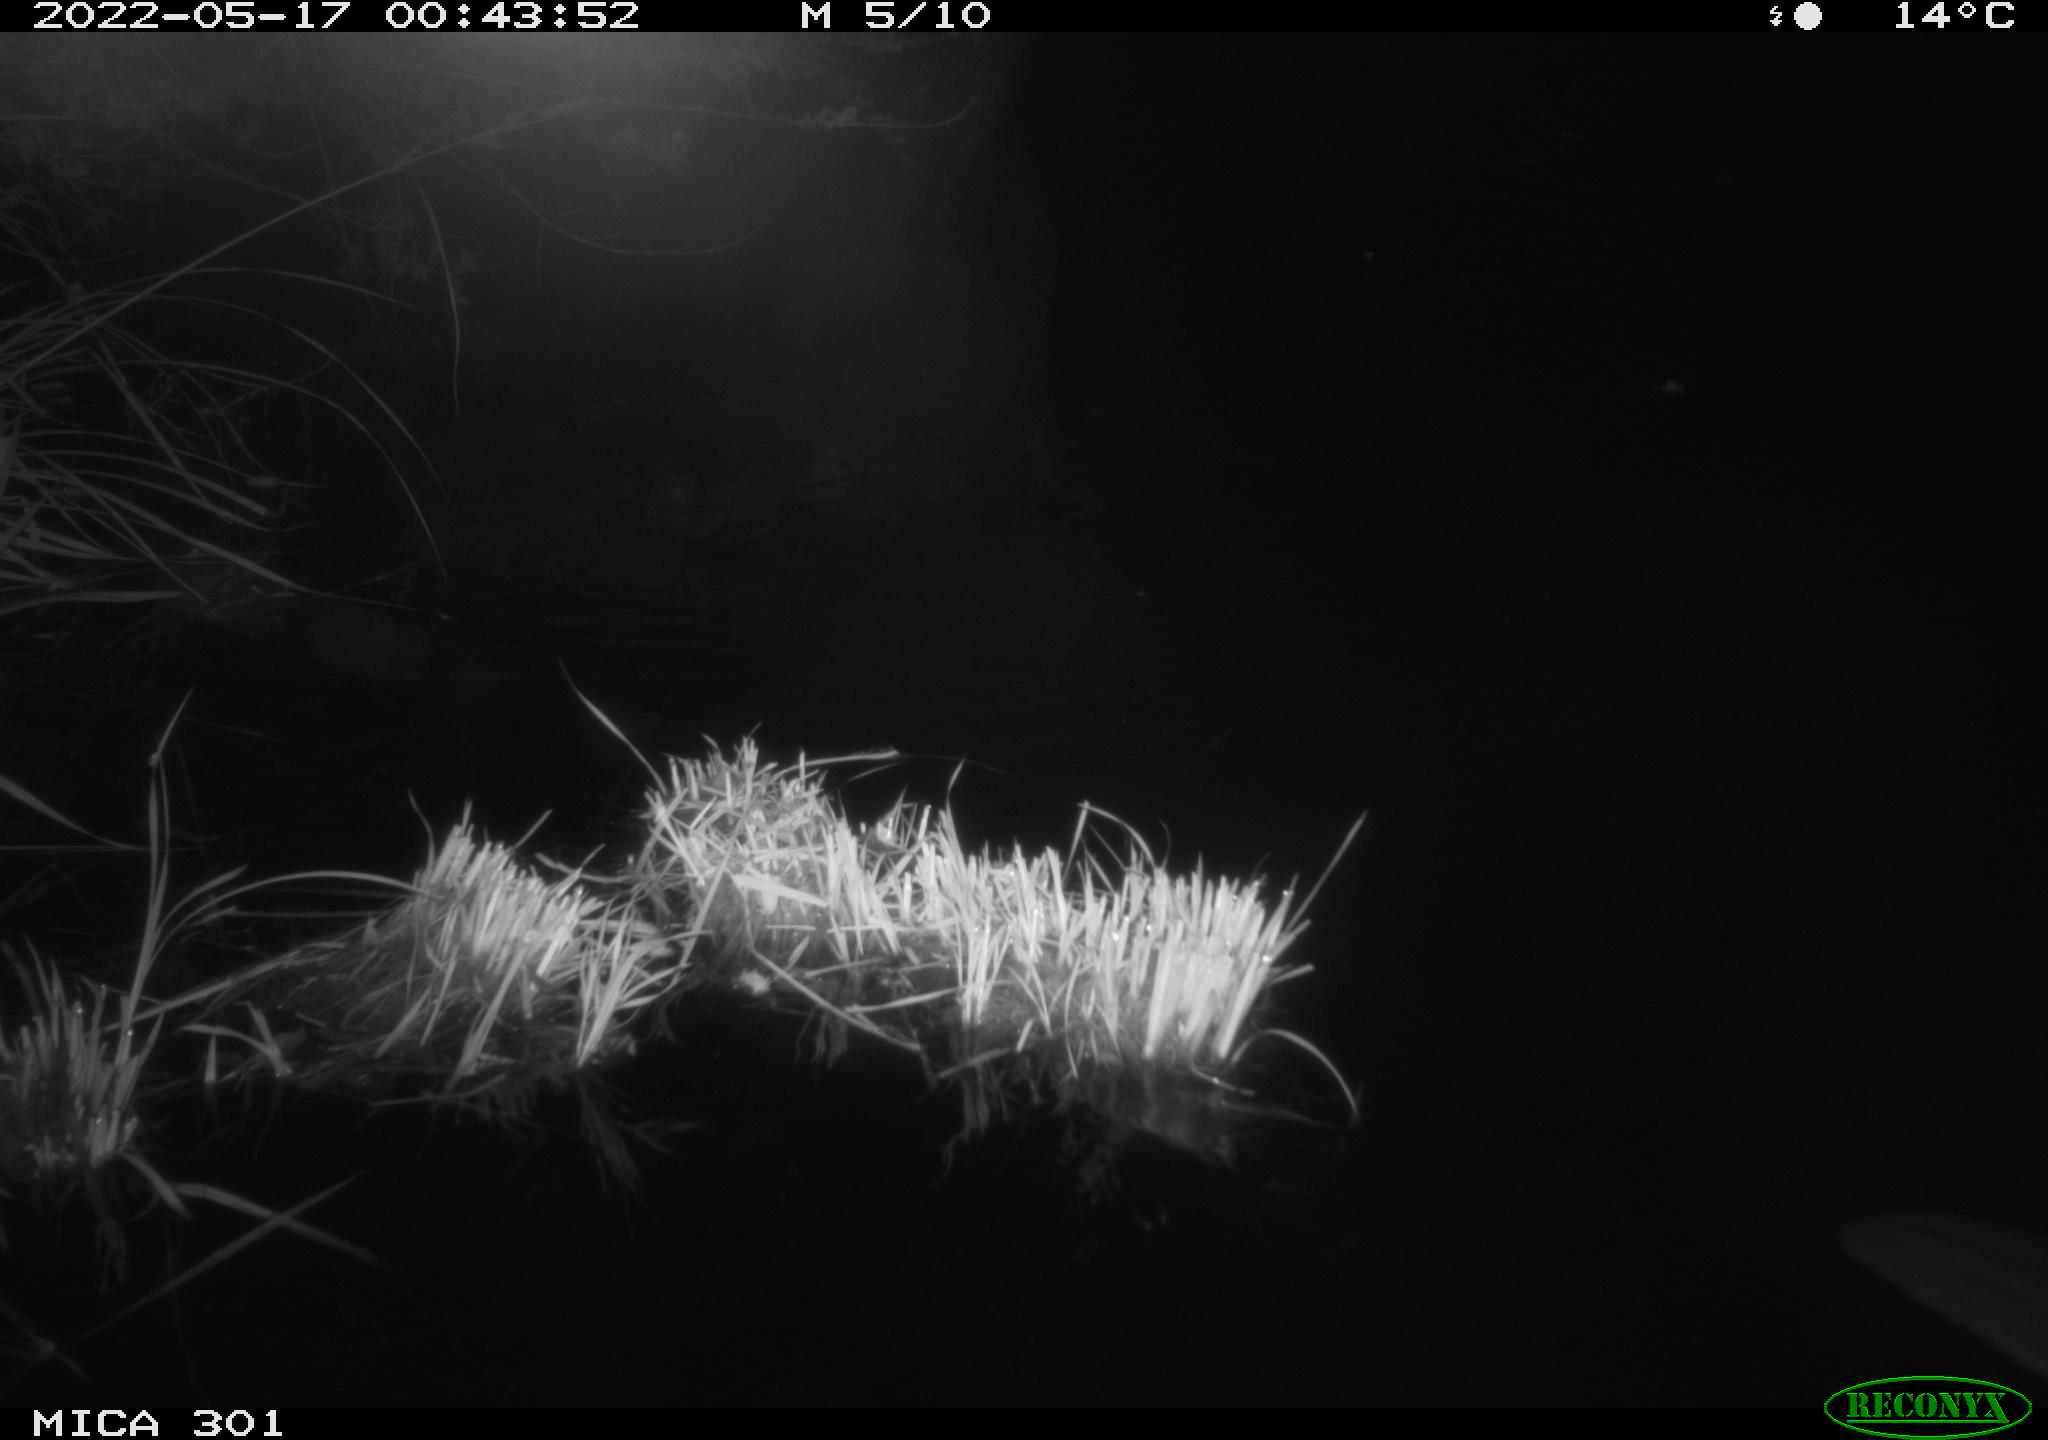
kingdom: Animalia
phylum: Chordata
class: Aves
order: Anseriformes
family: Anatidae
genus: Anas
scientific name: Anas platyrhynchos
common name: Mallard
